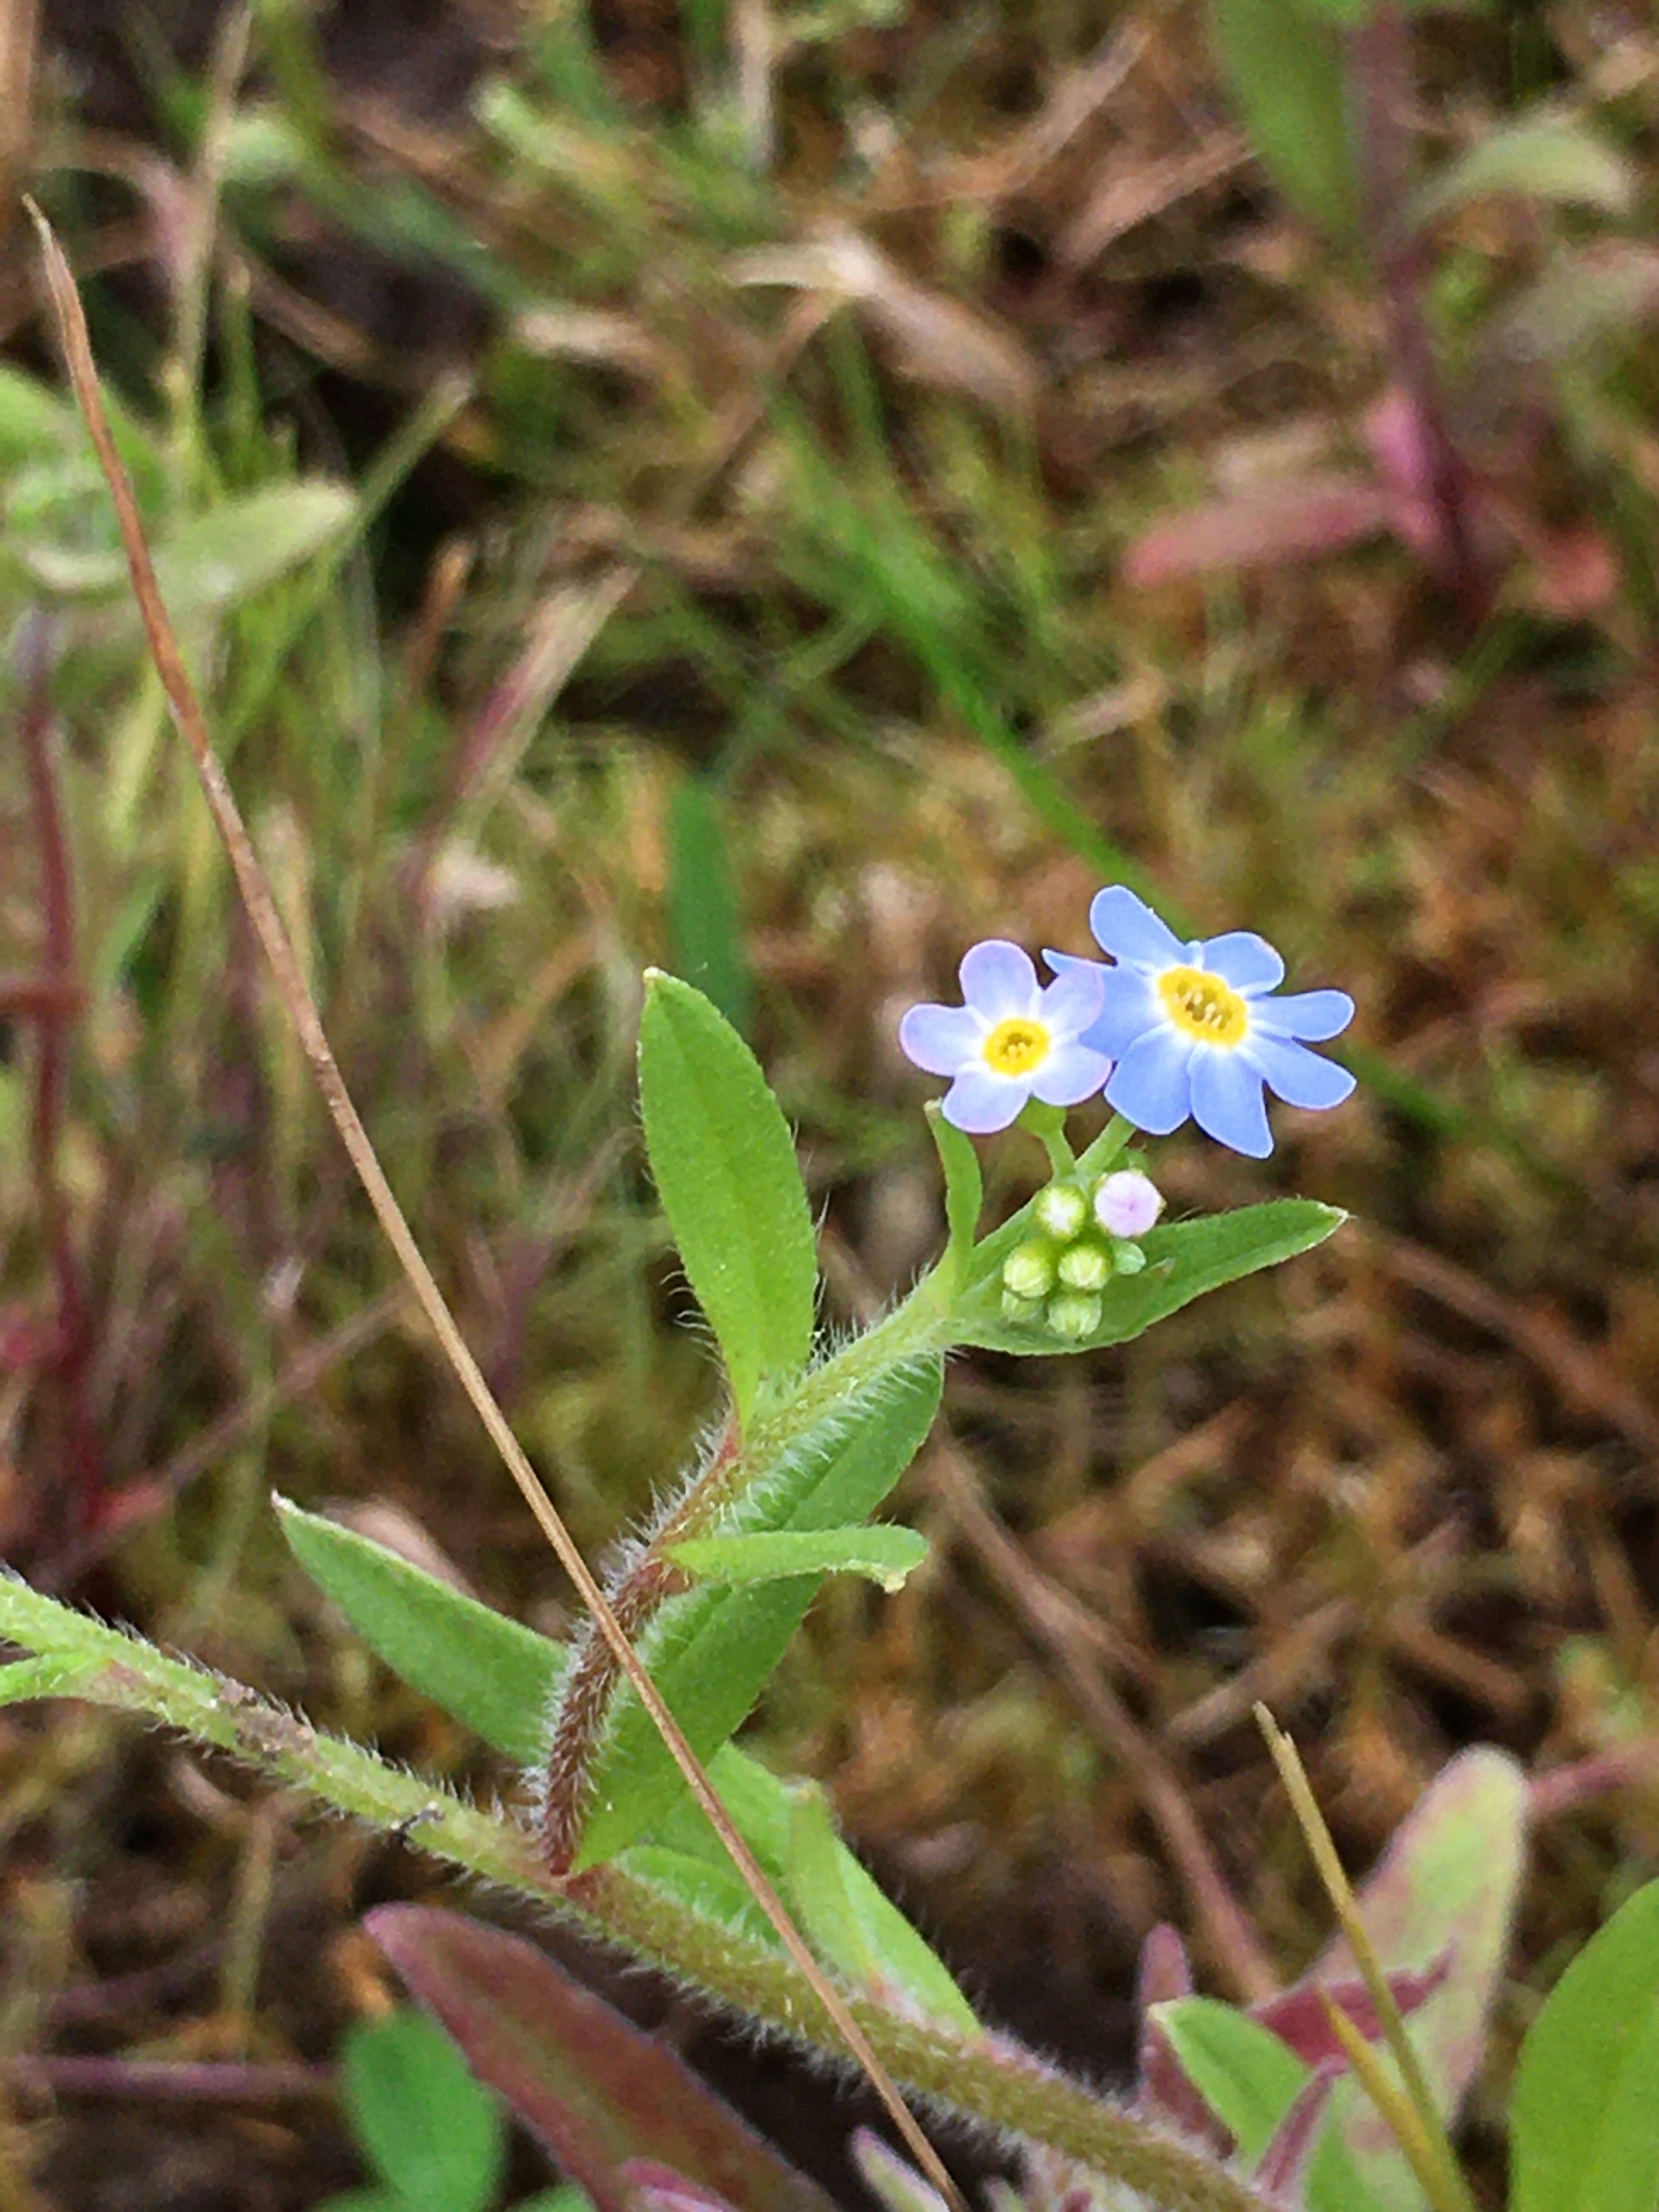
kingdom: Plantae
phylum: Tracheophyta
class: Magnoliopsida
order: Boraginales
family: Boraginaceae
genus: Myosotis
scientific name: Myosotis scorpioides
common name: Eng-forglemmigej
